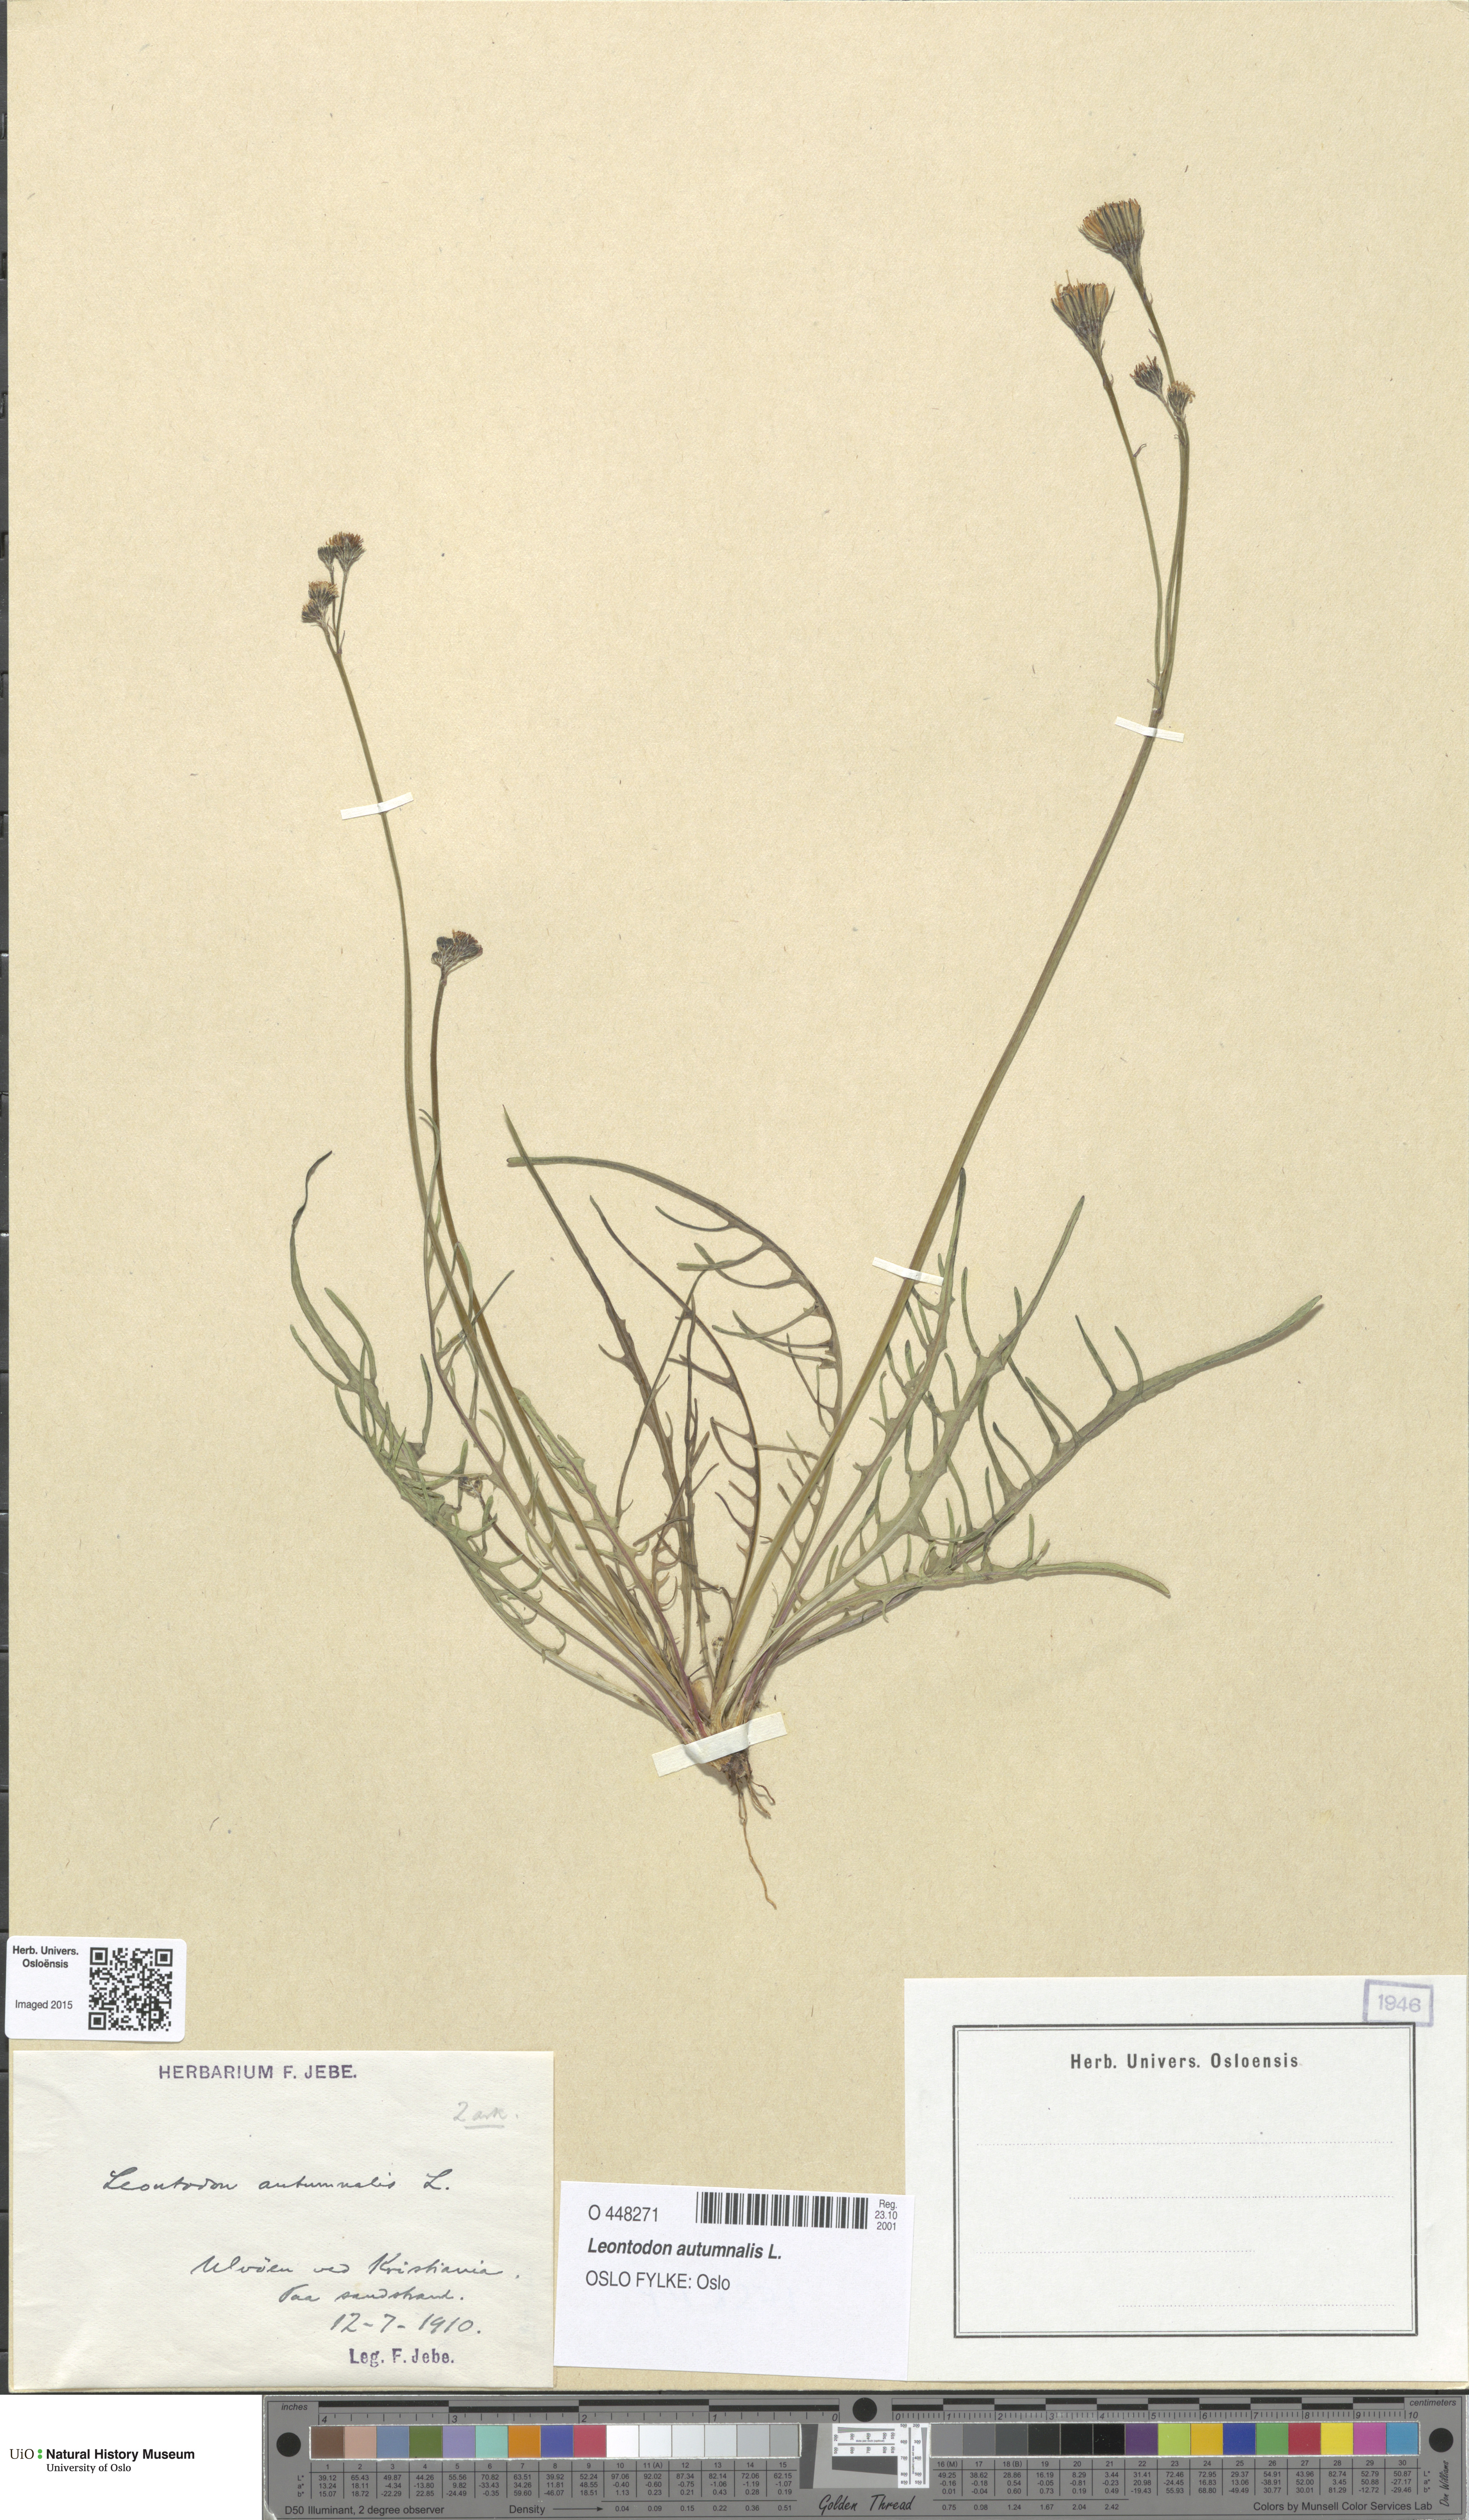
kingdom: Plantae
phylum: Tracheophyta
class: Magnoliopsida
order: Asterales
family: Asteraceae
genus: Scorzoneroides
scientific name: Scorzoneroides autumnalis
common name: Autumn hawkbit
